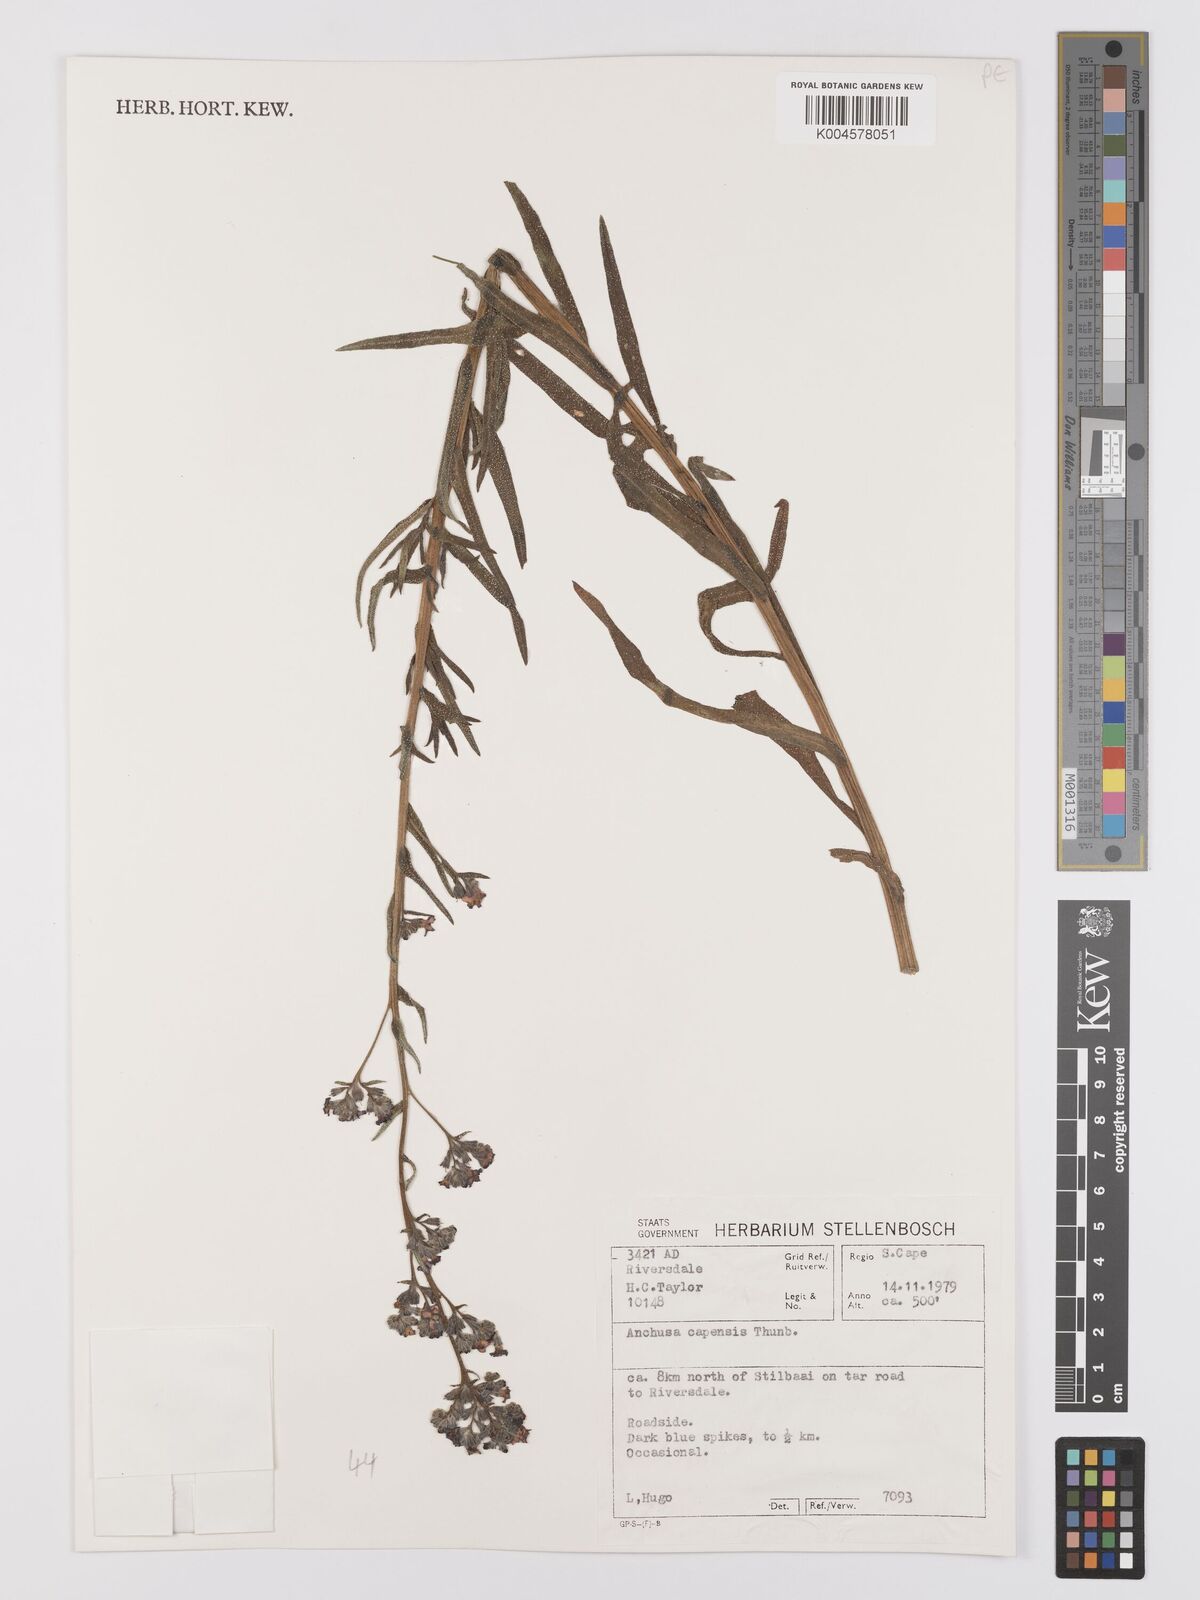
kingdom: Plantae
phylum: Tracheophyta
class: Magnoliopsida
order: Boraginales
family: Boraginaceae
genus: Anchusa
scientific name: Anchusa capensis
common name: Cape bugloss
